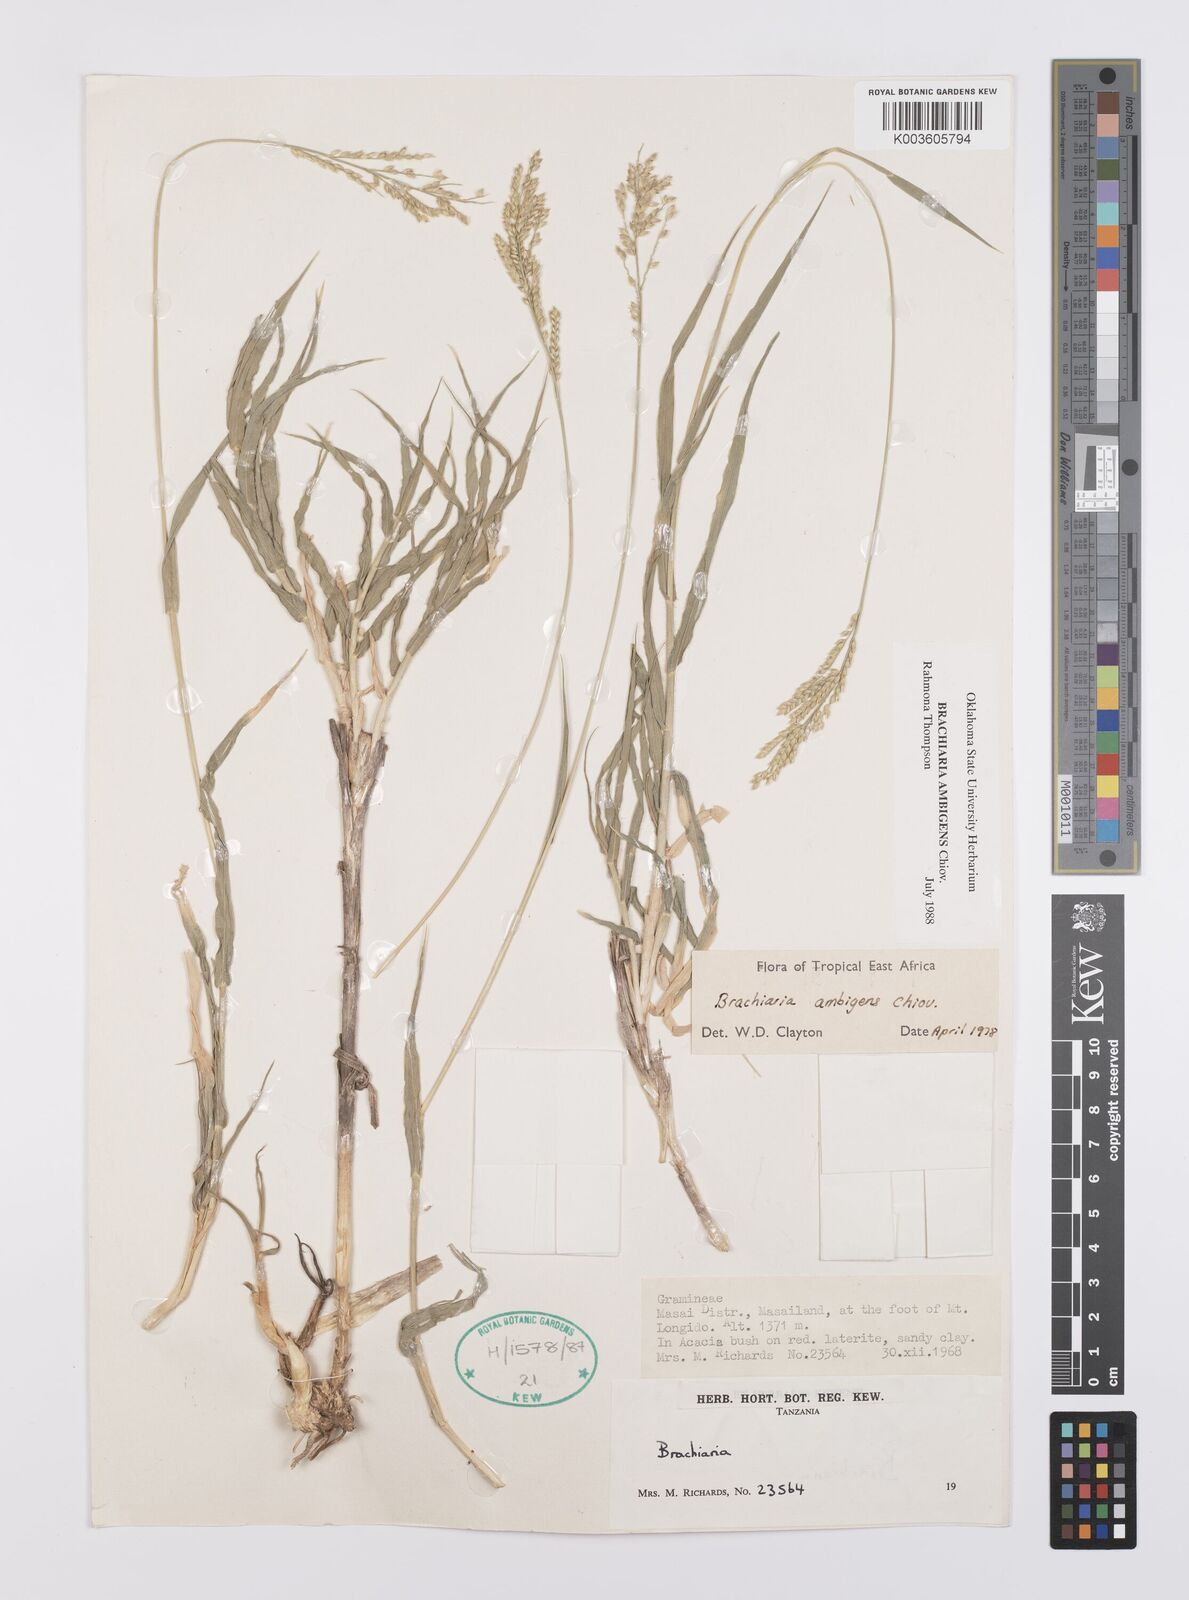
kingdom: Plantae
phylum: Tracheophyta
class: Liliopsida
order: Poales
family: Poaceae
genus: Urochloa
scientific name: Urochloa Brachiaria ambigens
